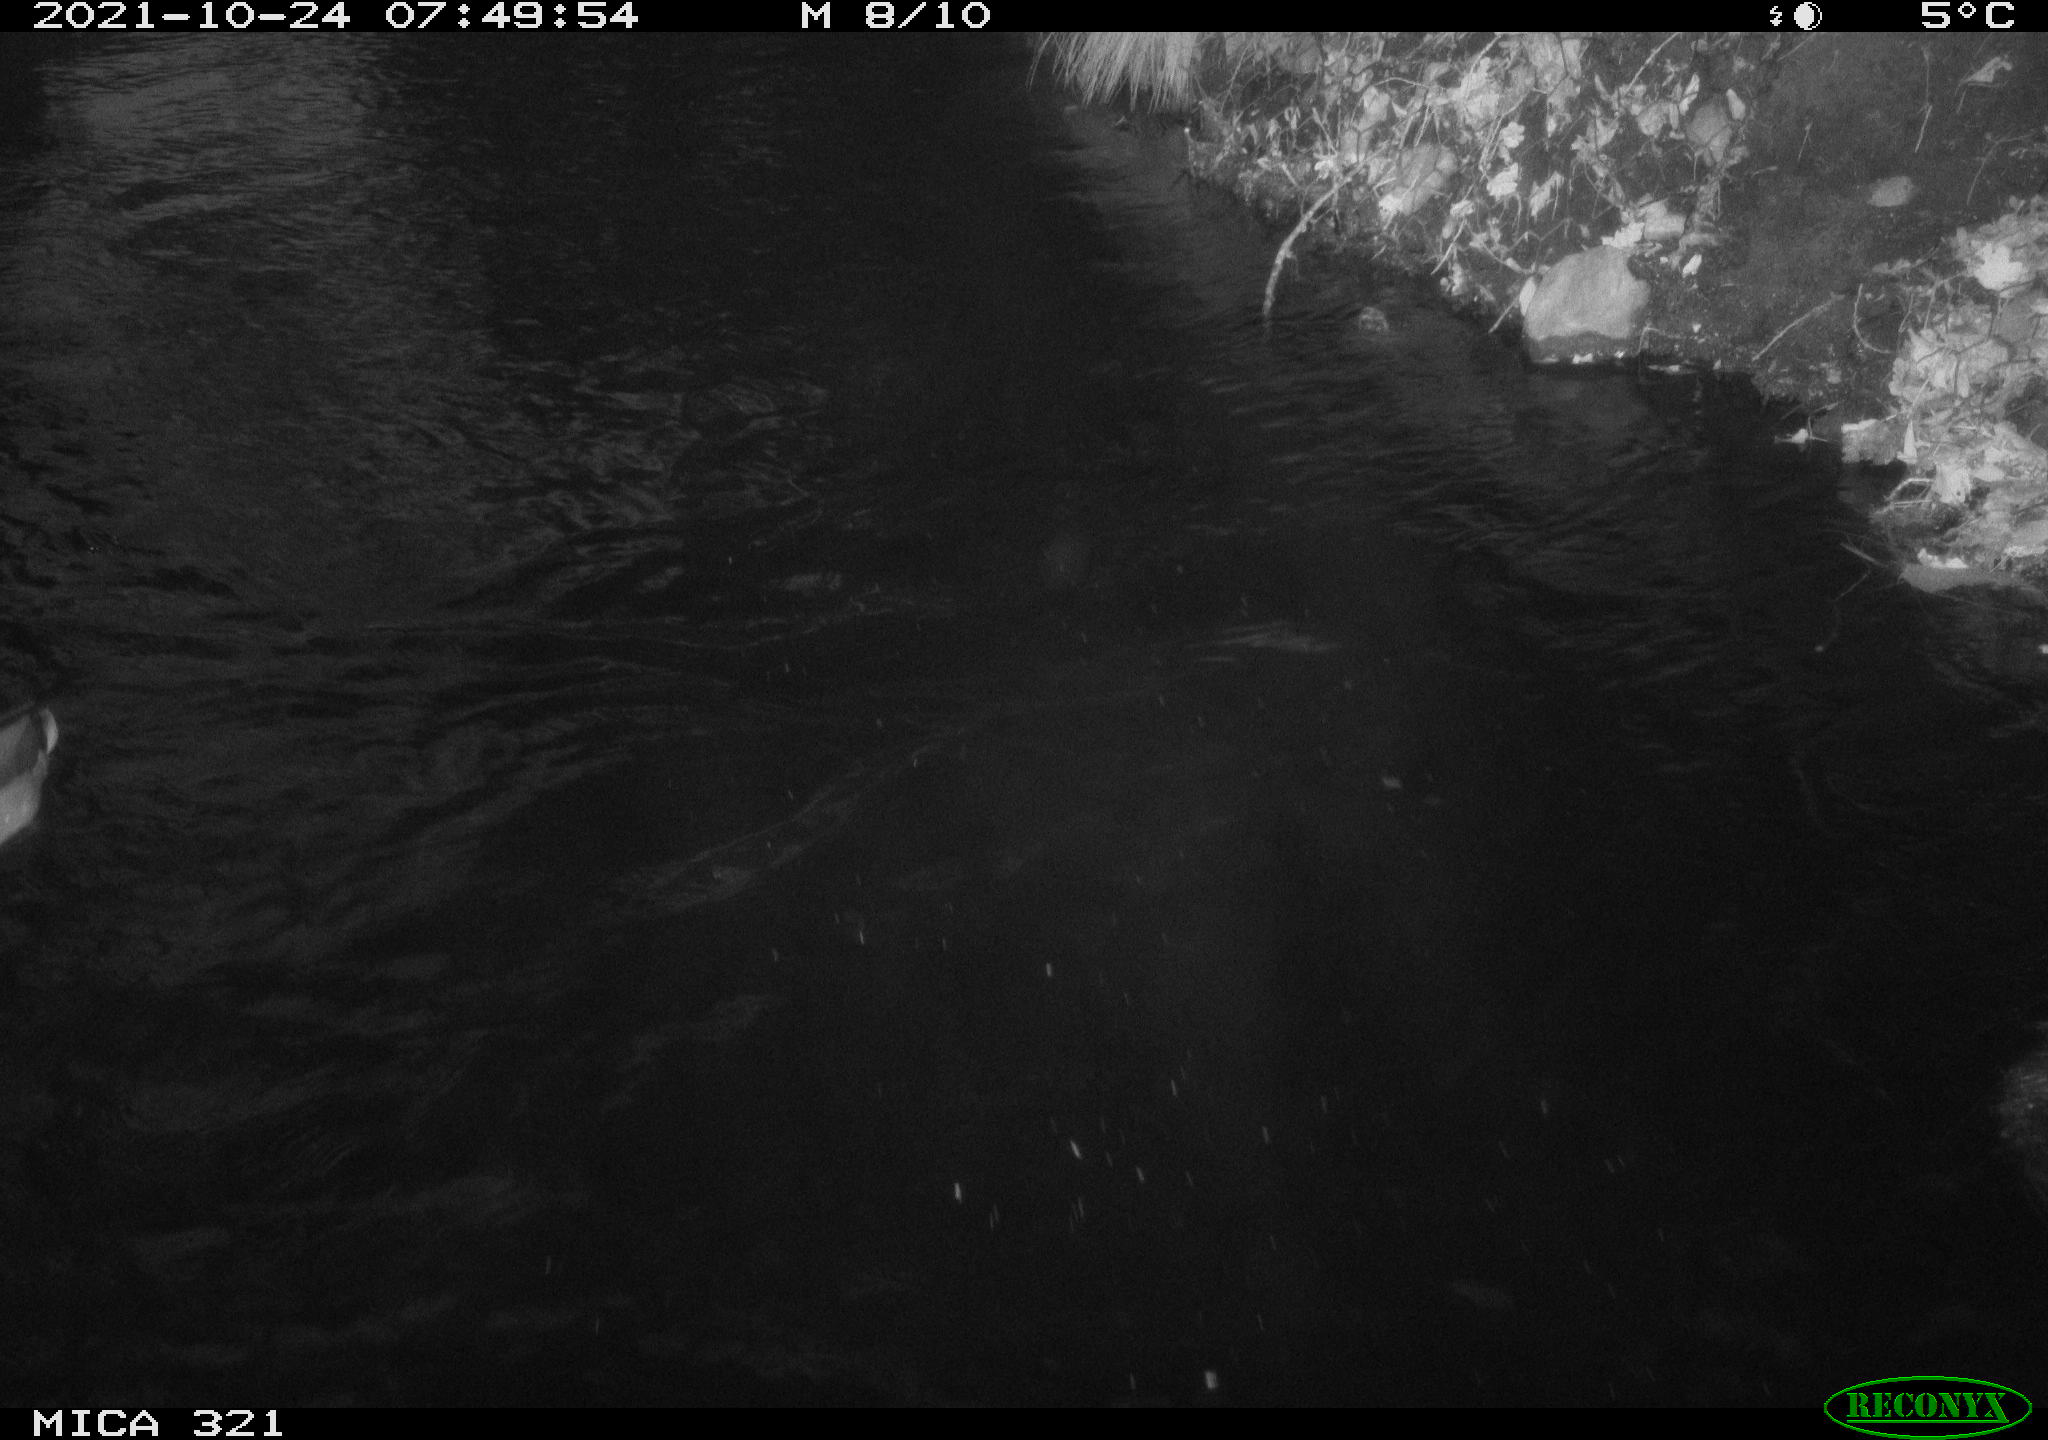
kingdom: Animalia
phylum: Chordata
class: Aves
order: Anseriformes
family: Anatidae
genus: Anas
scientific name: Anas platyrhynchos
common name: Mallard
